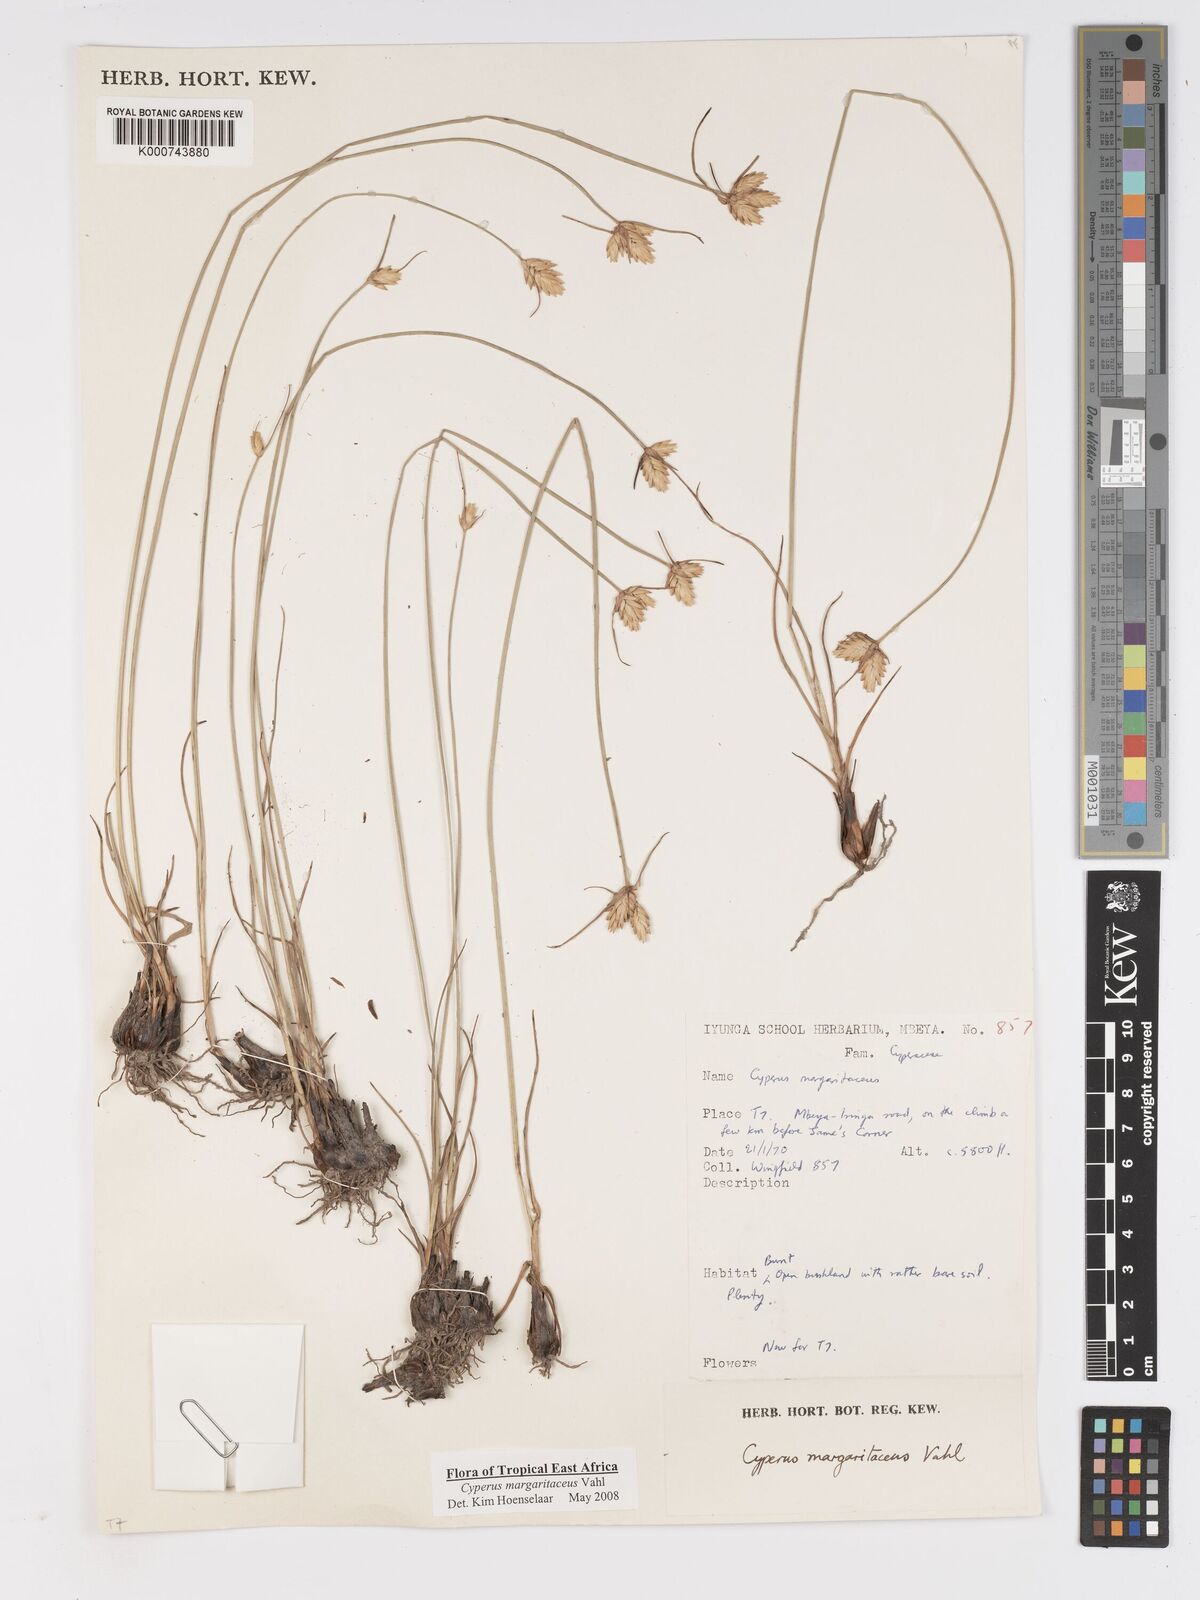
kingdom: Plantae
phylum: Tracheophyta
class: Liliopsida
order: Poales
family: Cyperaceae
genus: Cyperus
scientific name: Cyperus margaritaceus
